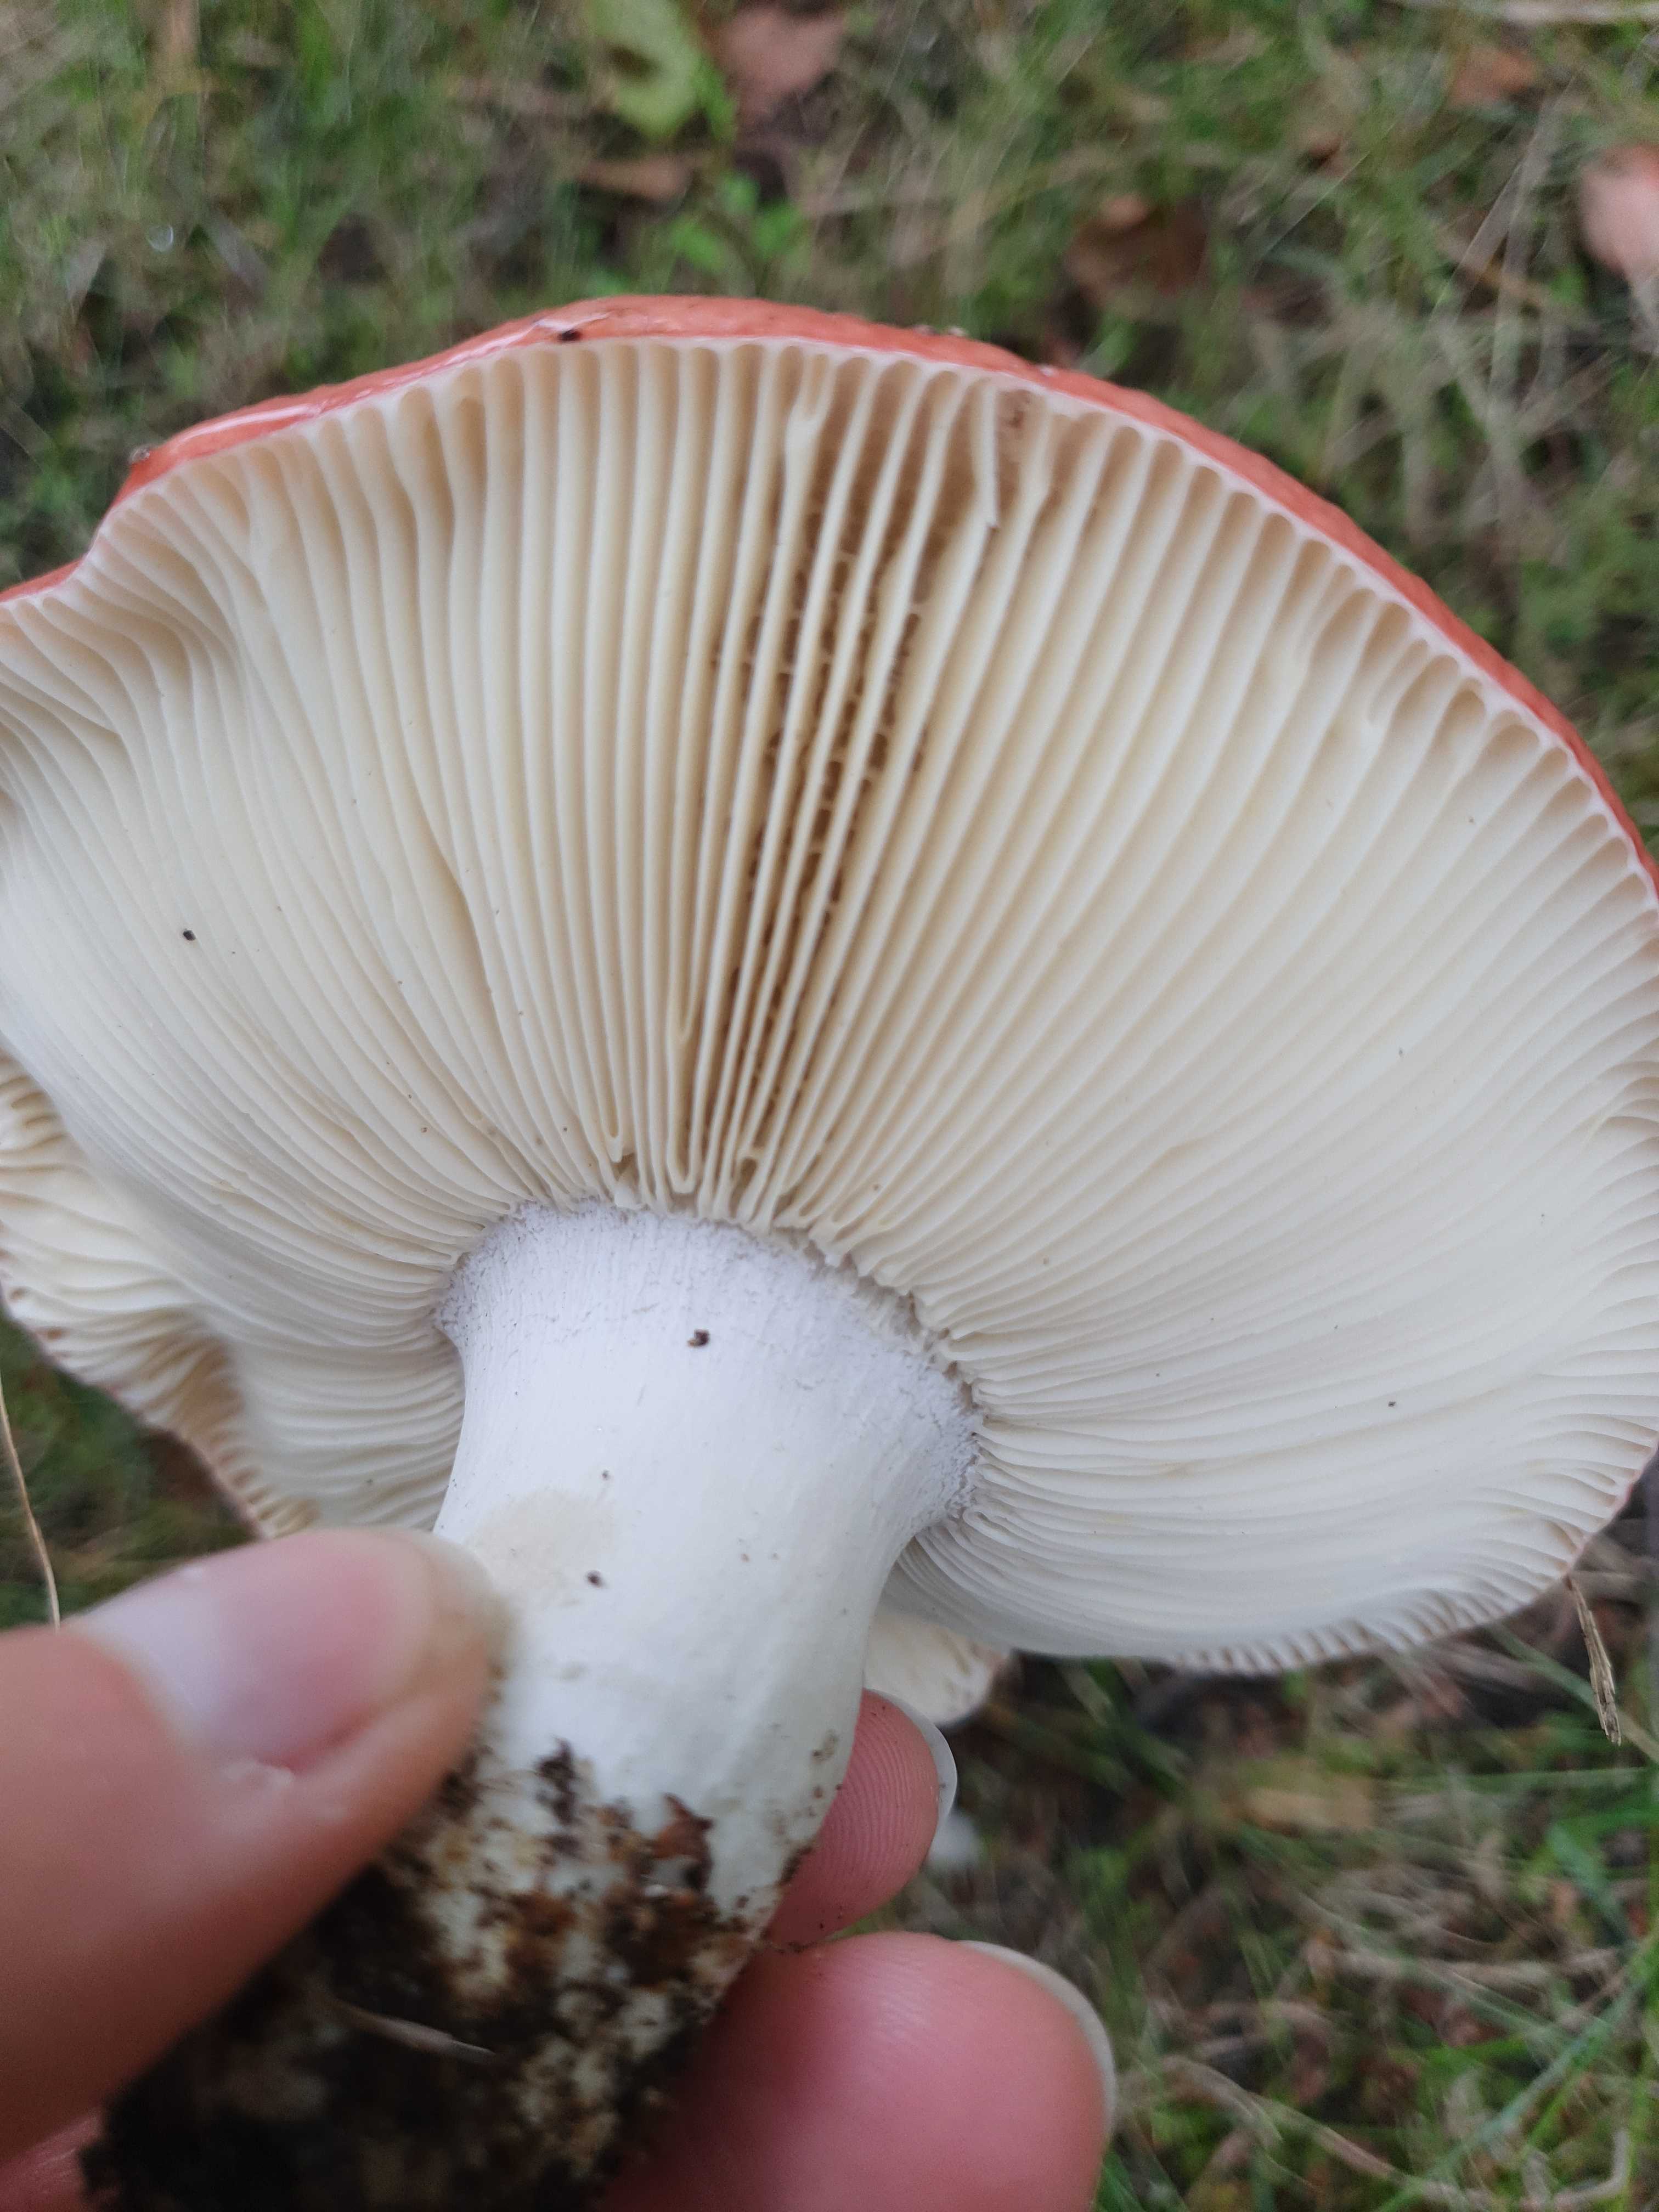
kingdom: Fungi
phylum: Basidiomycota
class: Agaricomycetes
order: Russulales
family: Russulaceae
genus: Russula
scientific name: Russula
